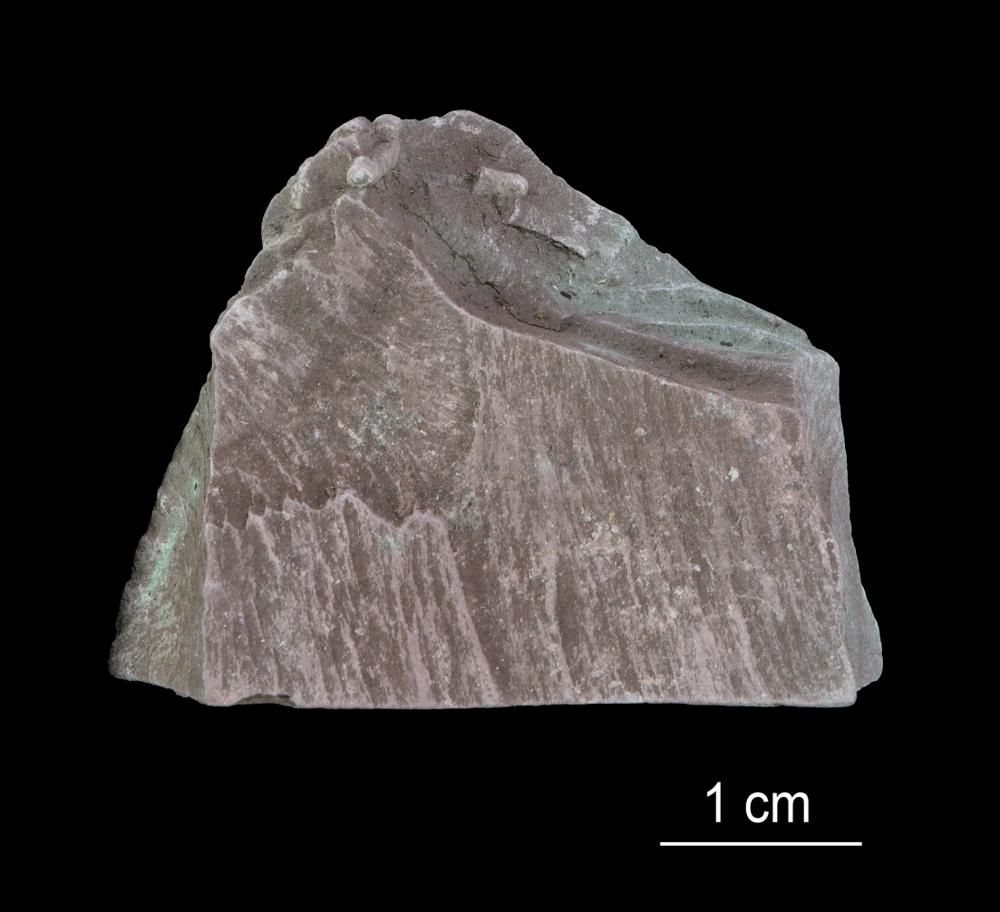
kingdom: Chromista
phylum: Foraminifera
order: Astrorhizida
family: Hyperamminidae
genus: Platysolenites
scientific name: Platysolenites antiquissimus
